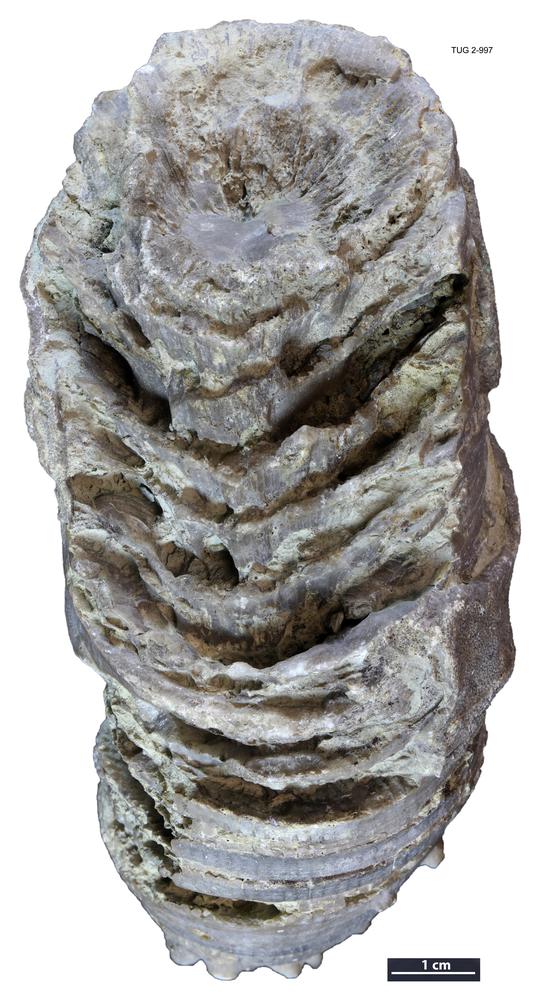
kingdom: Animalia
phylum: Cnidaria
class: Anthozoa
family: Ketophyllidae
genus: Omphyma
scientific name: Omphyma
